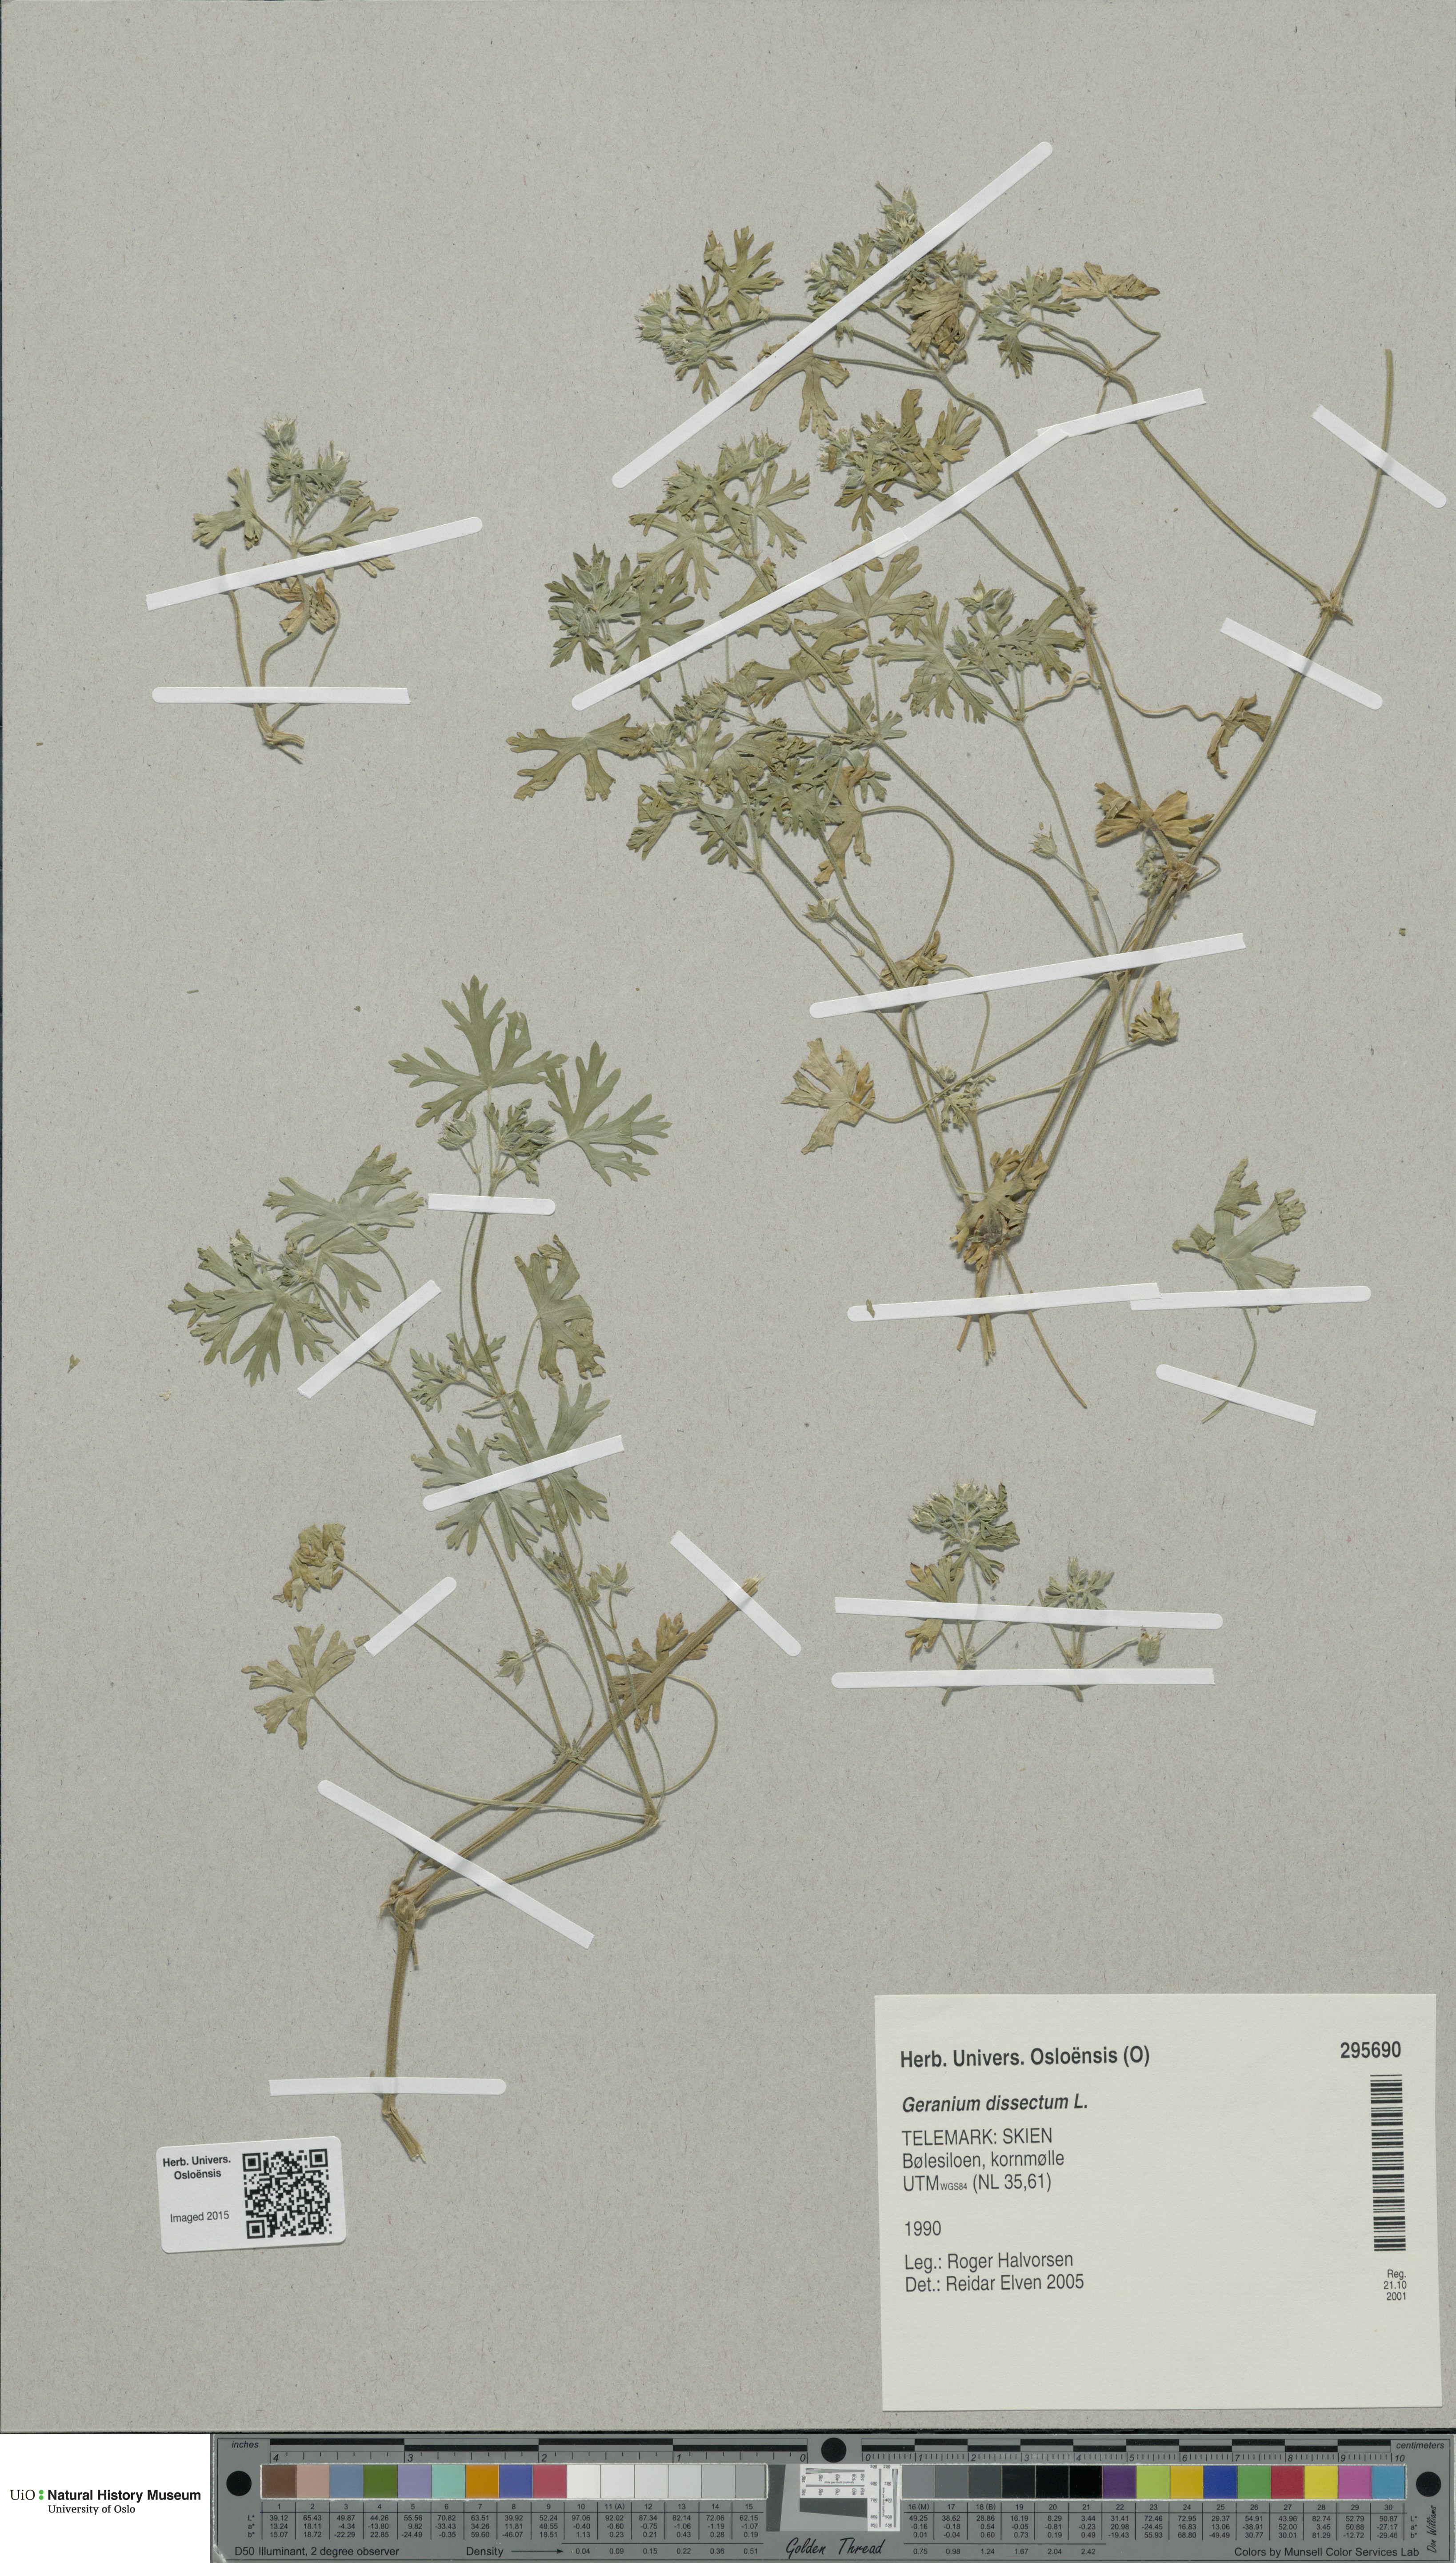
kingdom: Plantae
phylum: Tracheophyta
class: Magnoliopsida
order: Geraniales
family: Geraniaceae
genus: Geranium
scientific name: Geranium dissectum
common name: Cut-leaved crane's-bill
